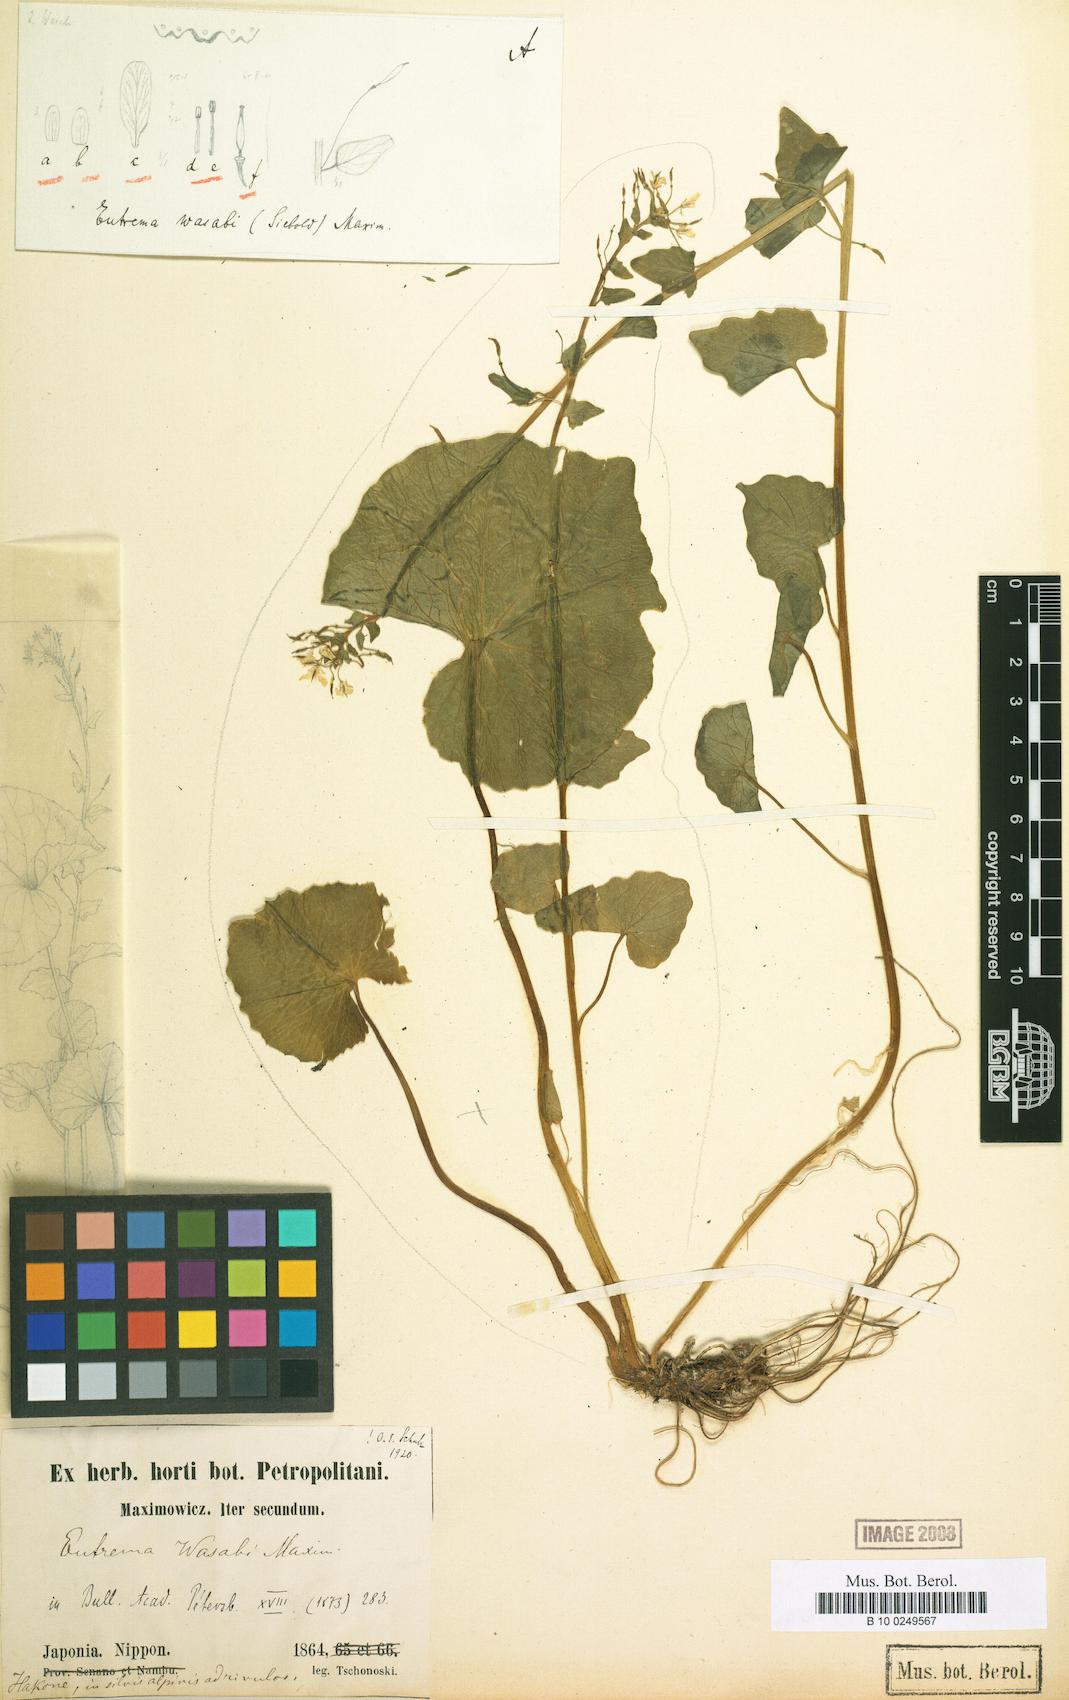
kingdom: Plantae
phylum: Tracheophyta
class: Magnoliopsida
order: Brassicales
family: Brassicaceae
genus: Eutrema
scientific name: Eutrema japonicum
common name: Japanese-horseradish
